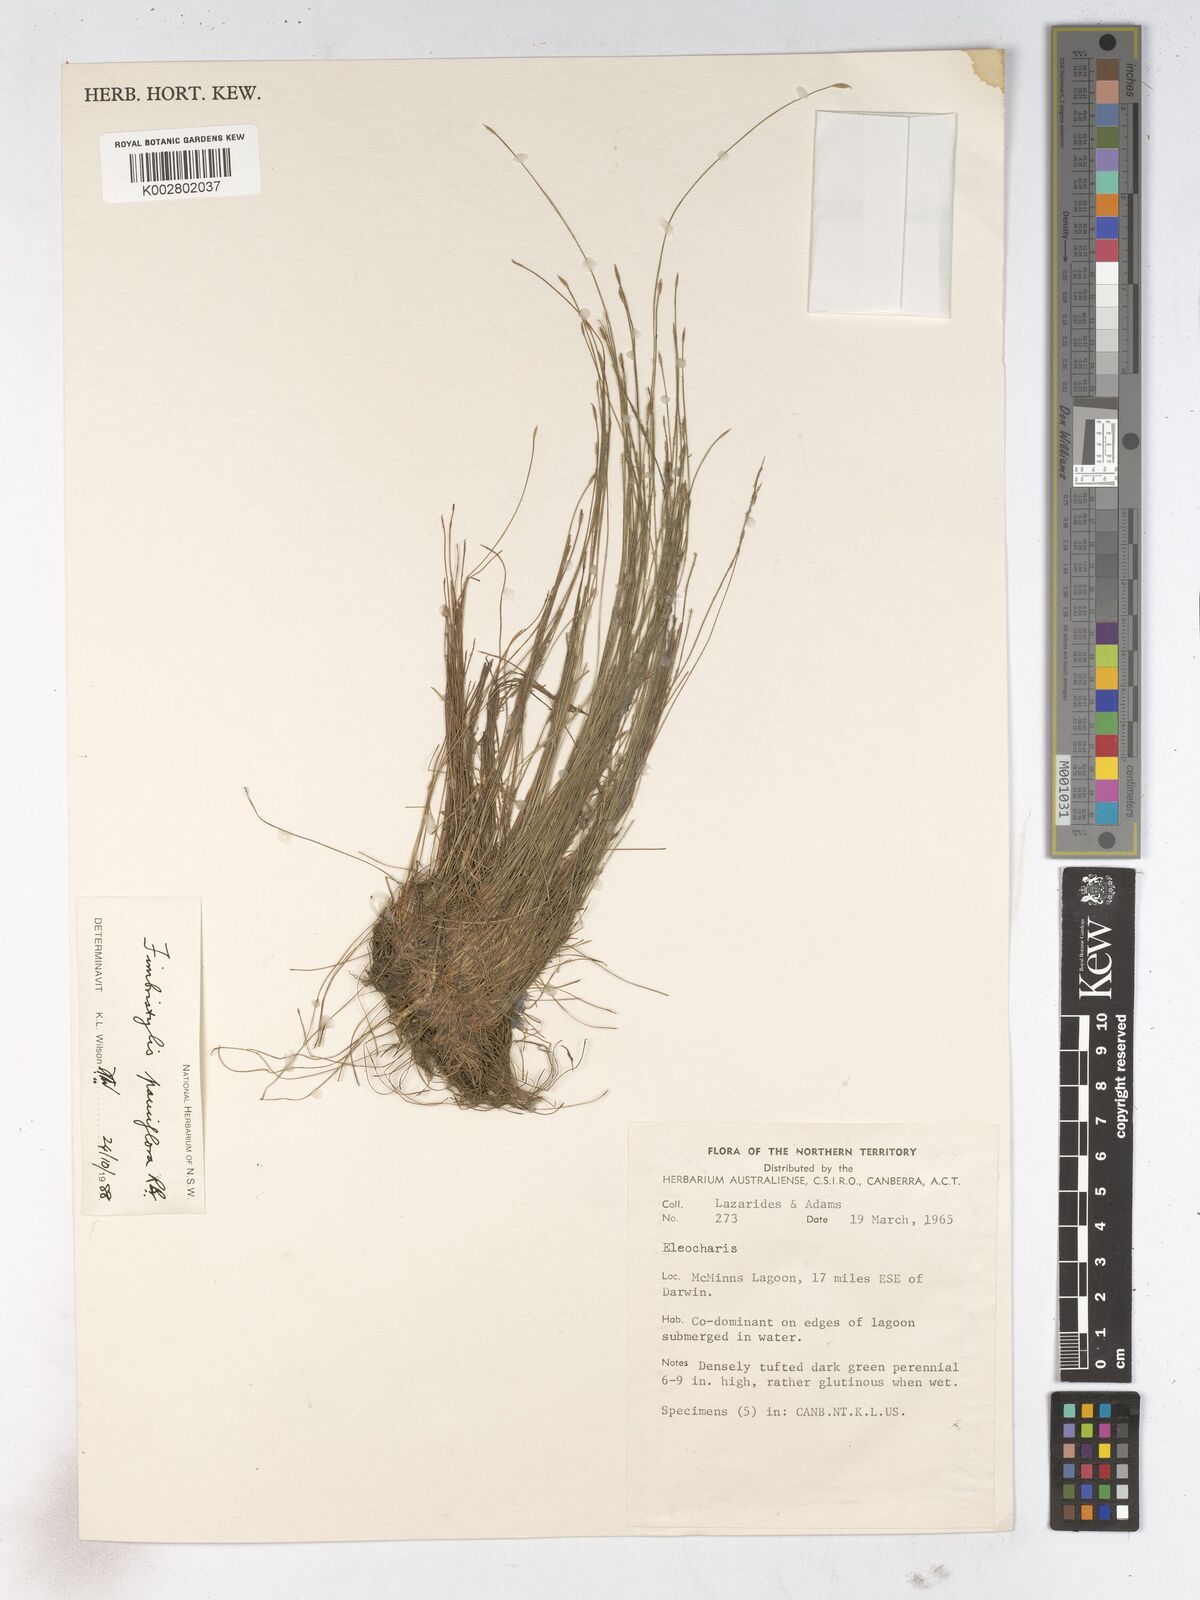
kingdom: Plantae
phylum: Tracheophyta
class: Liliopsida
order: Poales
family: Cyperaceae
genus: Fimbristylis
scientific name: Fimbristylis pauciflora
